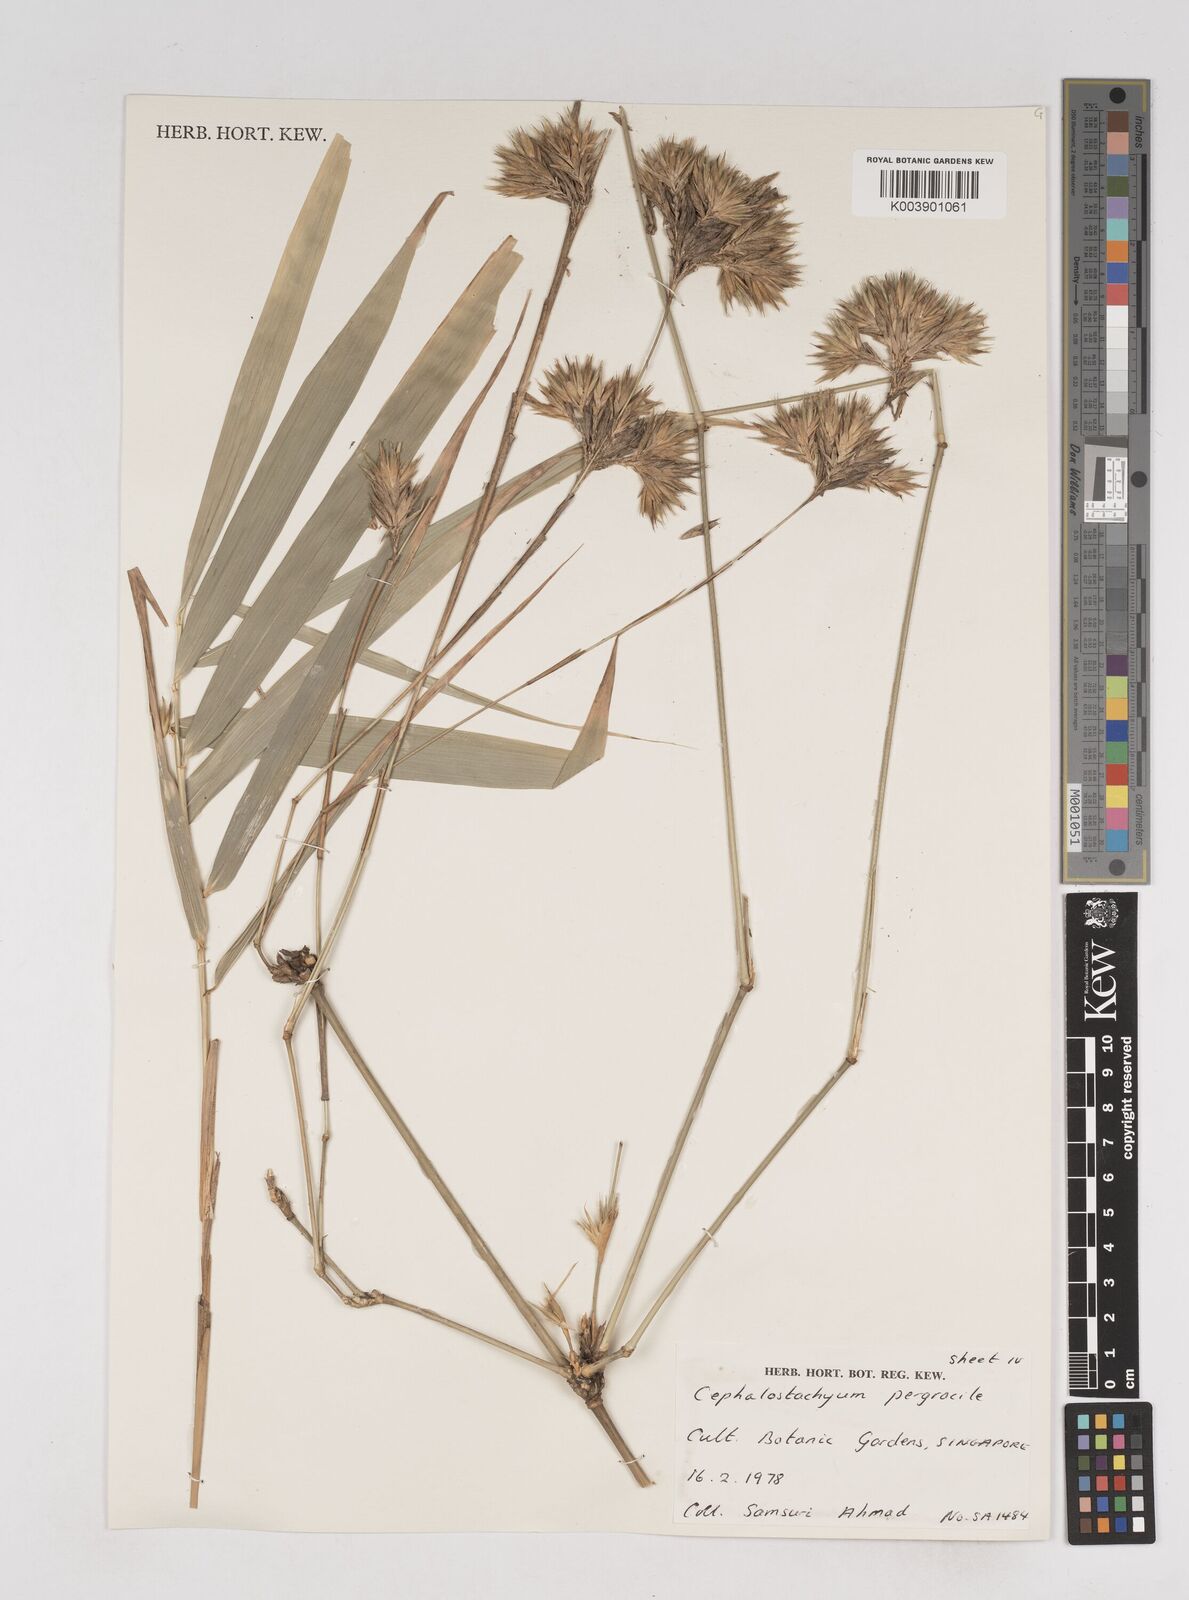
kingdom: Plantae
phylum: Tracheophyta
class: Liliopsida
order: Poales
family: Poaceae
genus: Schizostachyum
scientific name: Schizostachyum pergracile
